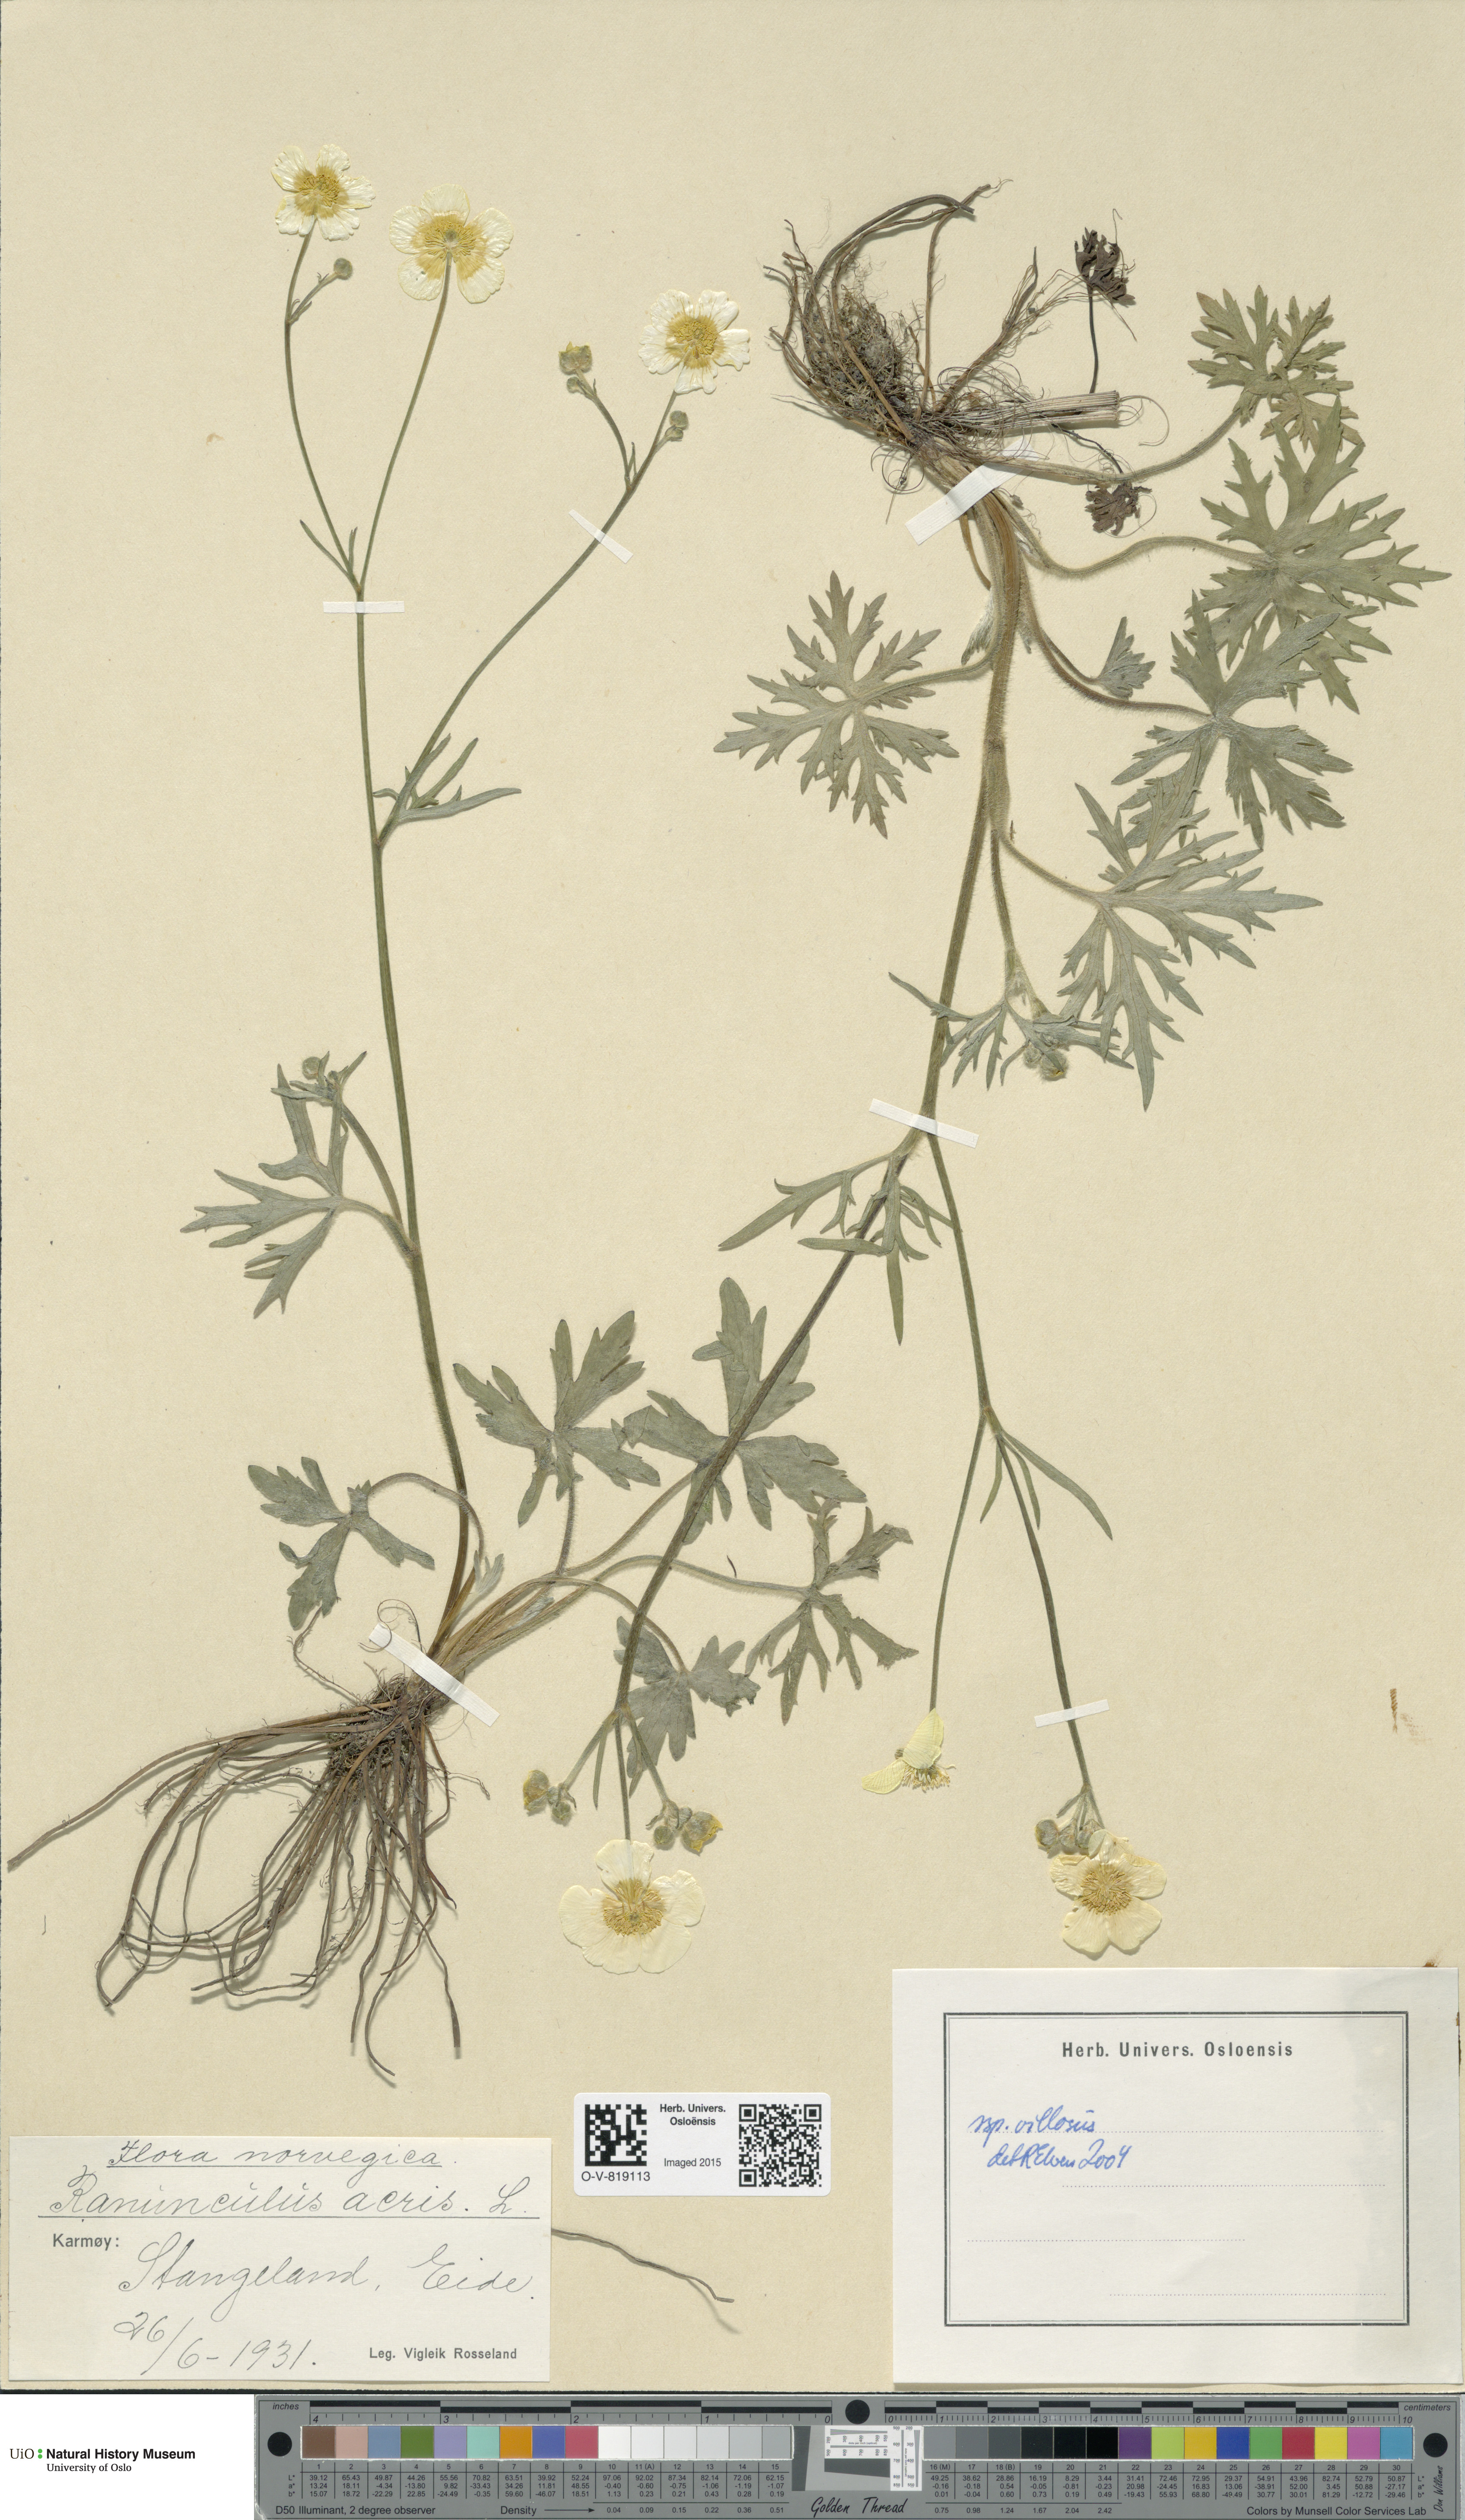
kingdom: Plantae
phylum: Tracheophyta
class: Magnoliopsida
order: Ranunculales
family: Ranunculaceae
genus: Ranunculus
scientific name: Ranunculus propinquus
